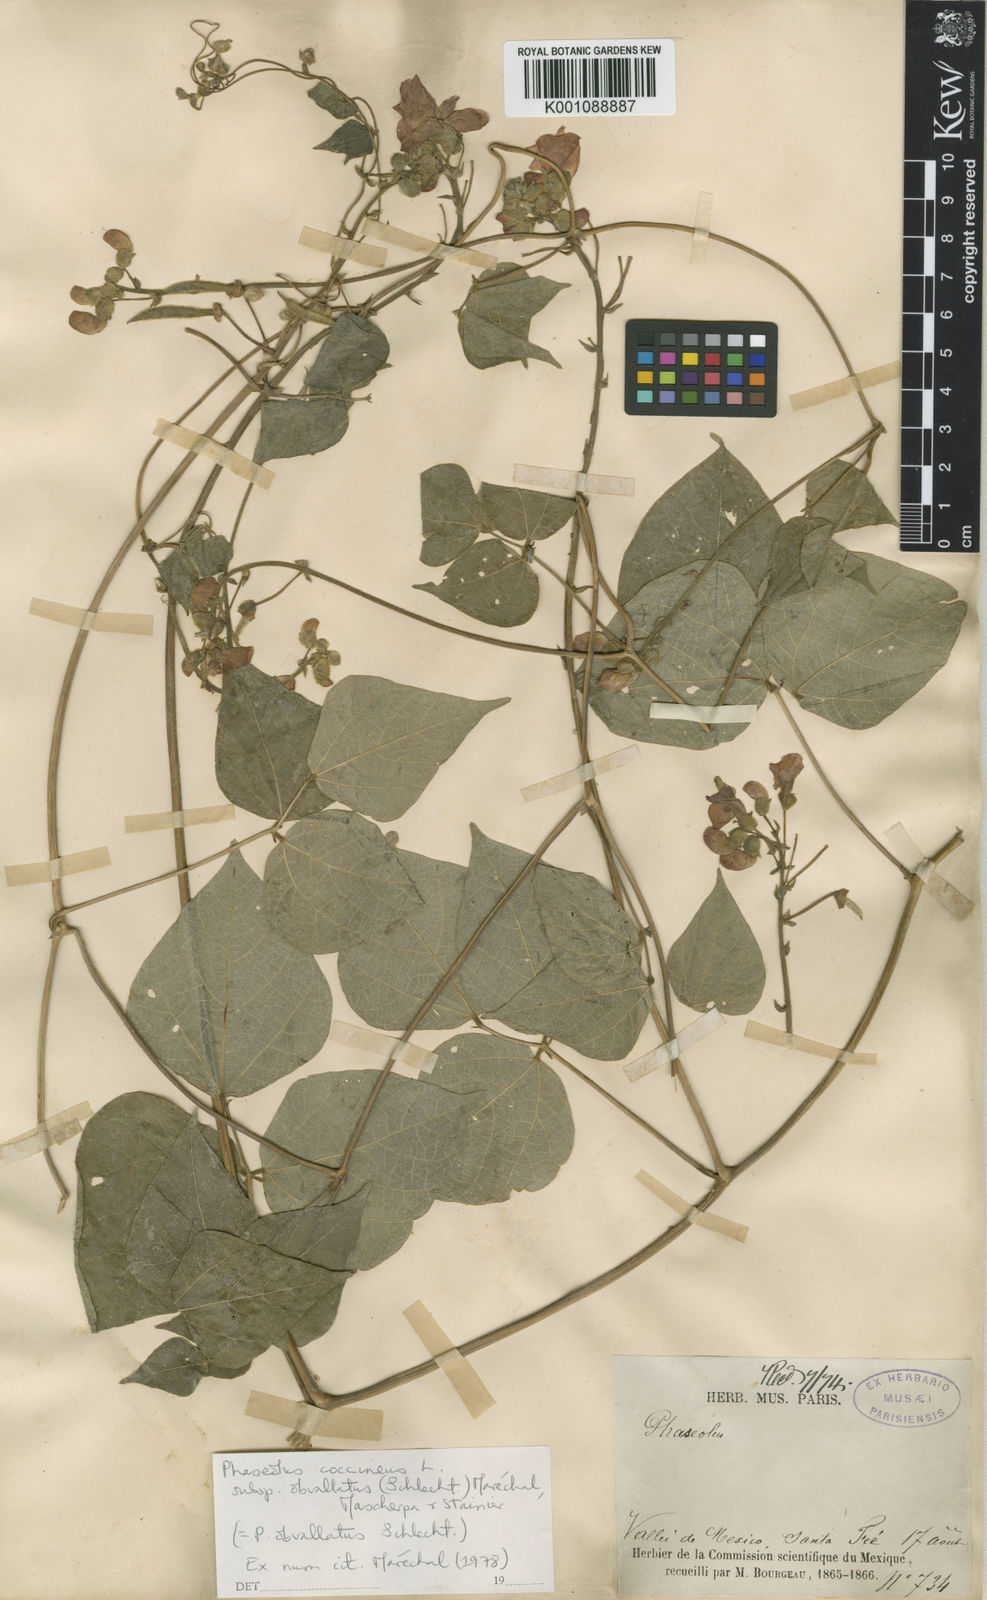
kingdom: Plantae
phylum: Tracheophyta
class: Magnoliopsida
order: Fabales
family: Fabaceae
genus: Phaseolus
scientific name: Phaseolus coccineus
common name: Runner bean
